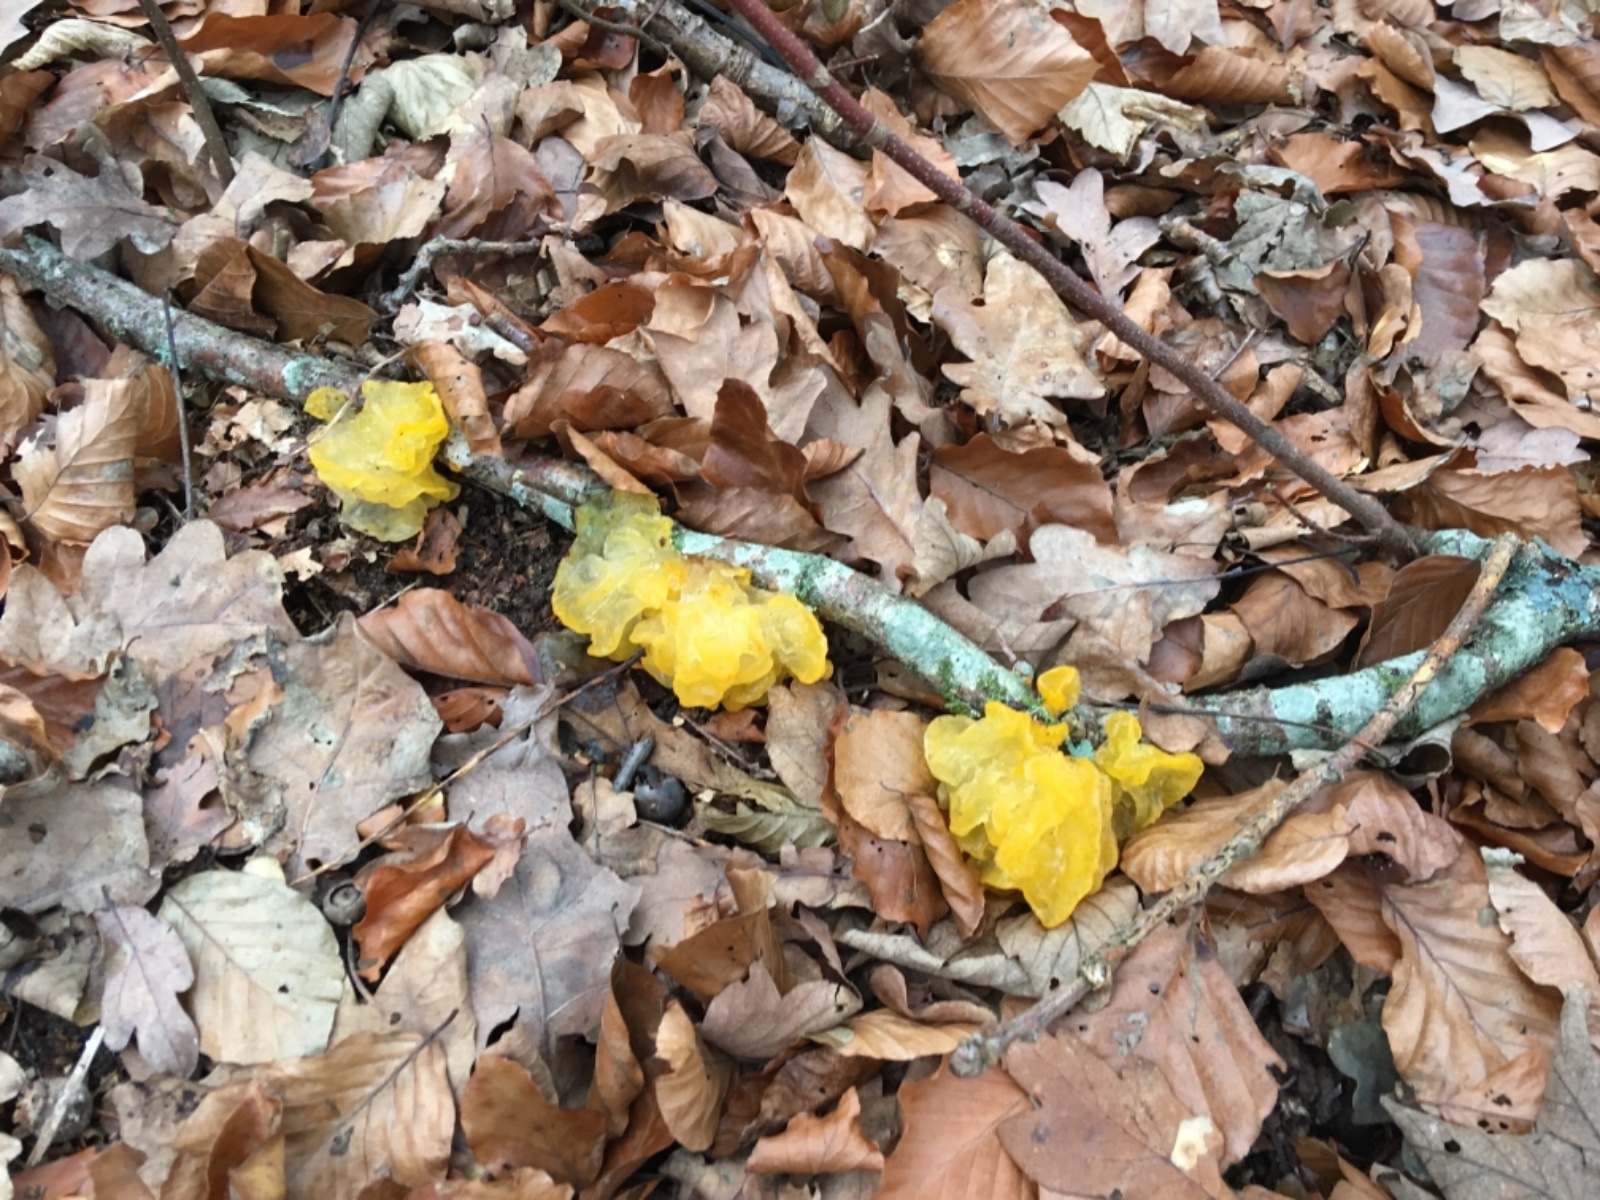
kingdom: Fungi
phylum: Basidiomycota
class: Tremellomycetes
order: Tremellales
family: Tremellaceae
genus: Tremella
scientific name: Tremella mesenterica
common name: gul bævresvamp
